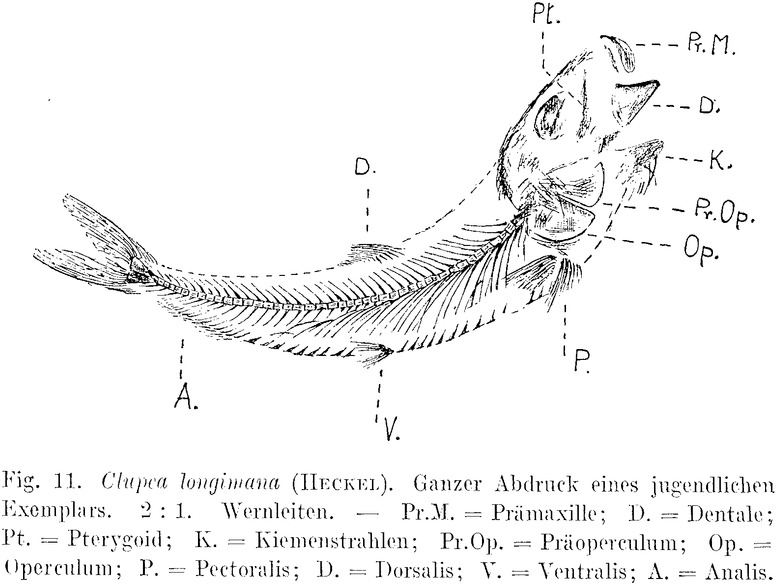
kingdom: Animalia
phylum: Chordata
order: Clupeiformes
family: Clupeidae
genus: Clupea
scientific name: Clupea longimana
